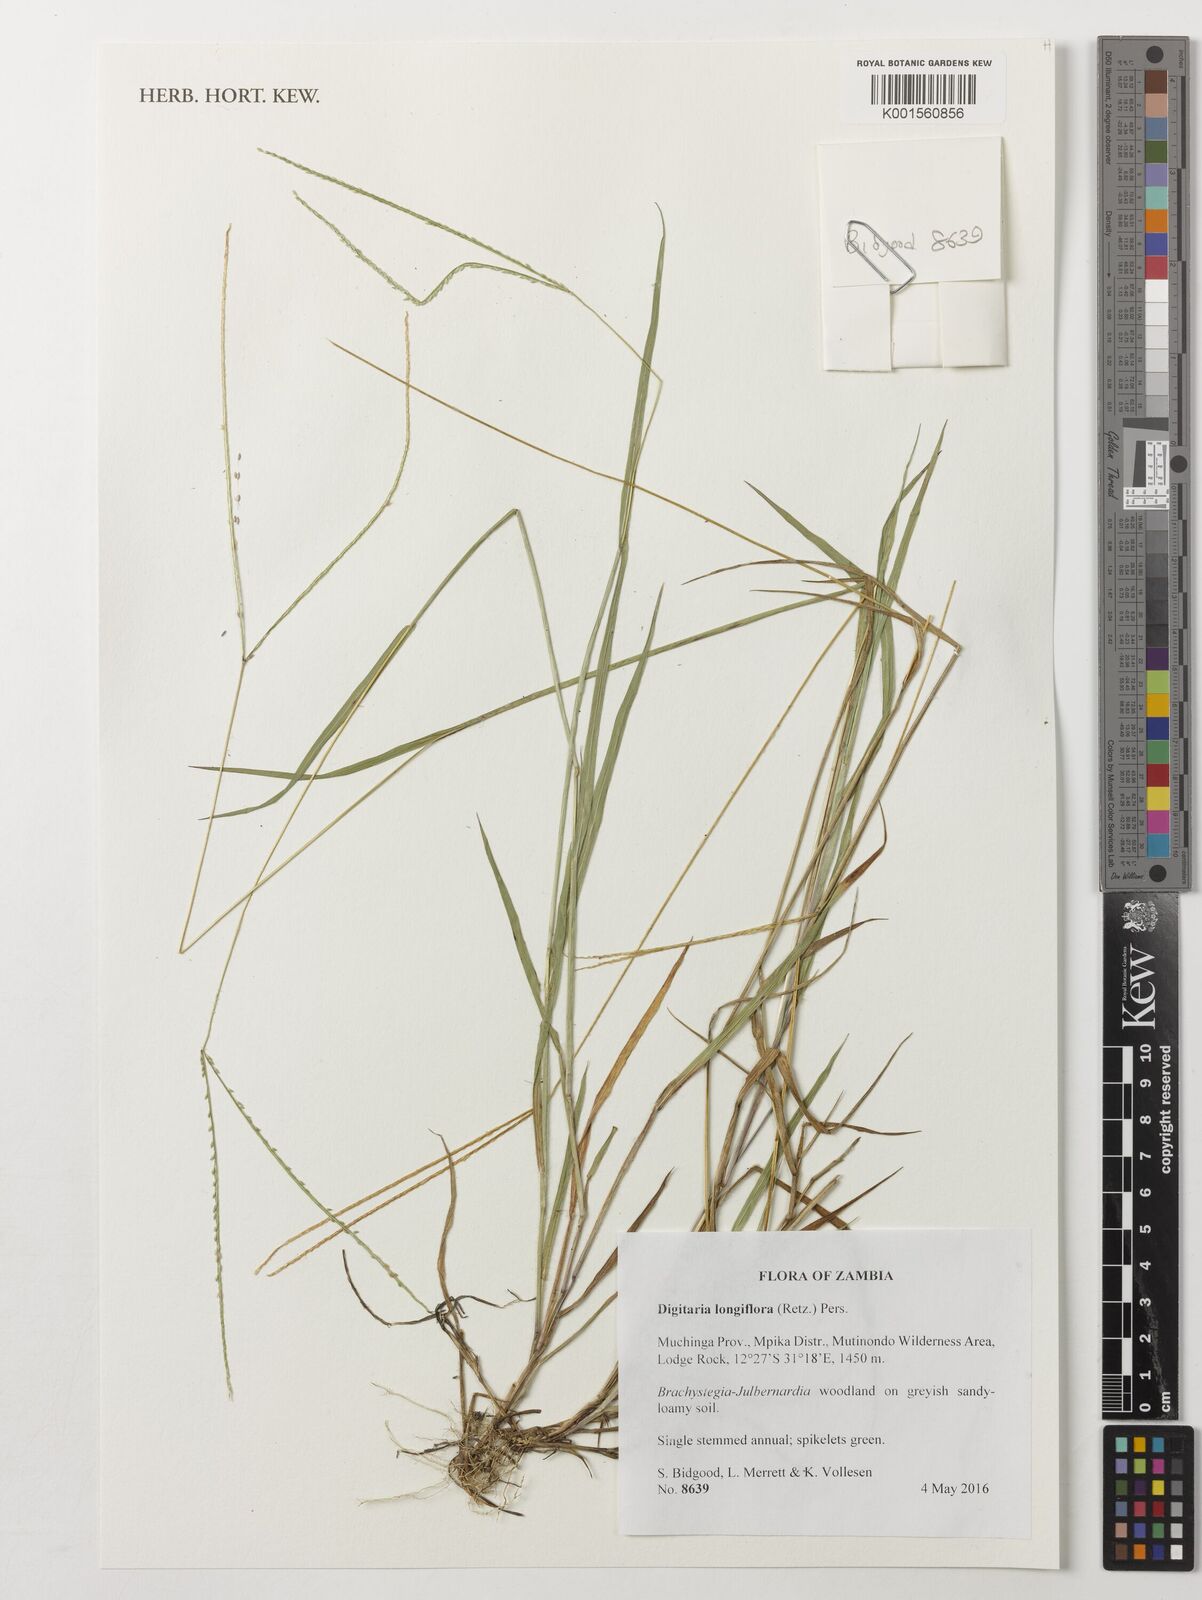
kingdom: Plantae
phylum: Tracheophyta
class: Liliopsida
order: Poales
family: Poaceae
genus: Digitaria
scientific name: Digitaria longiflora
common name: Wire crabgrass
